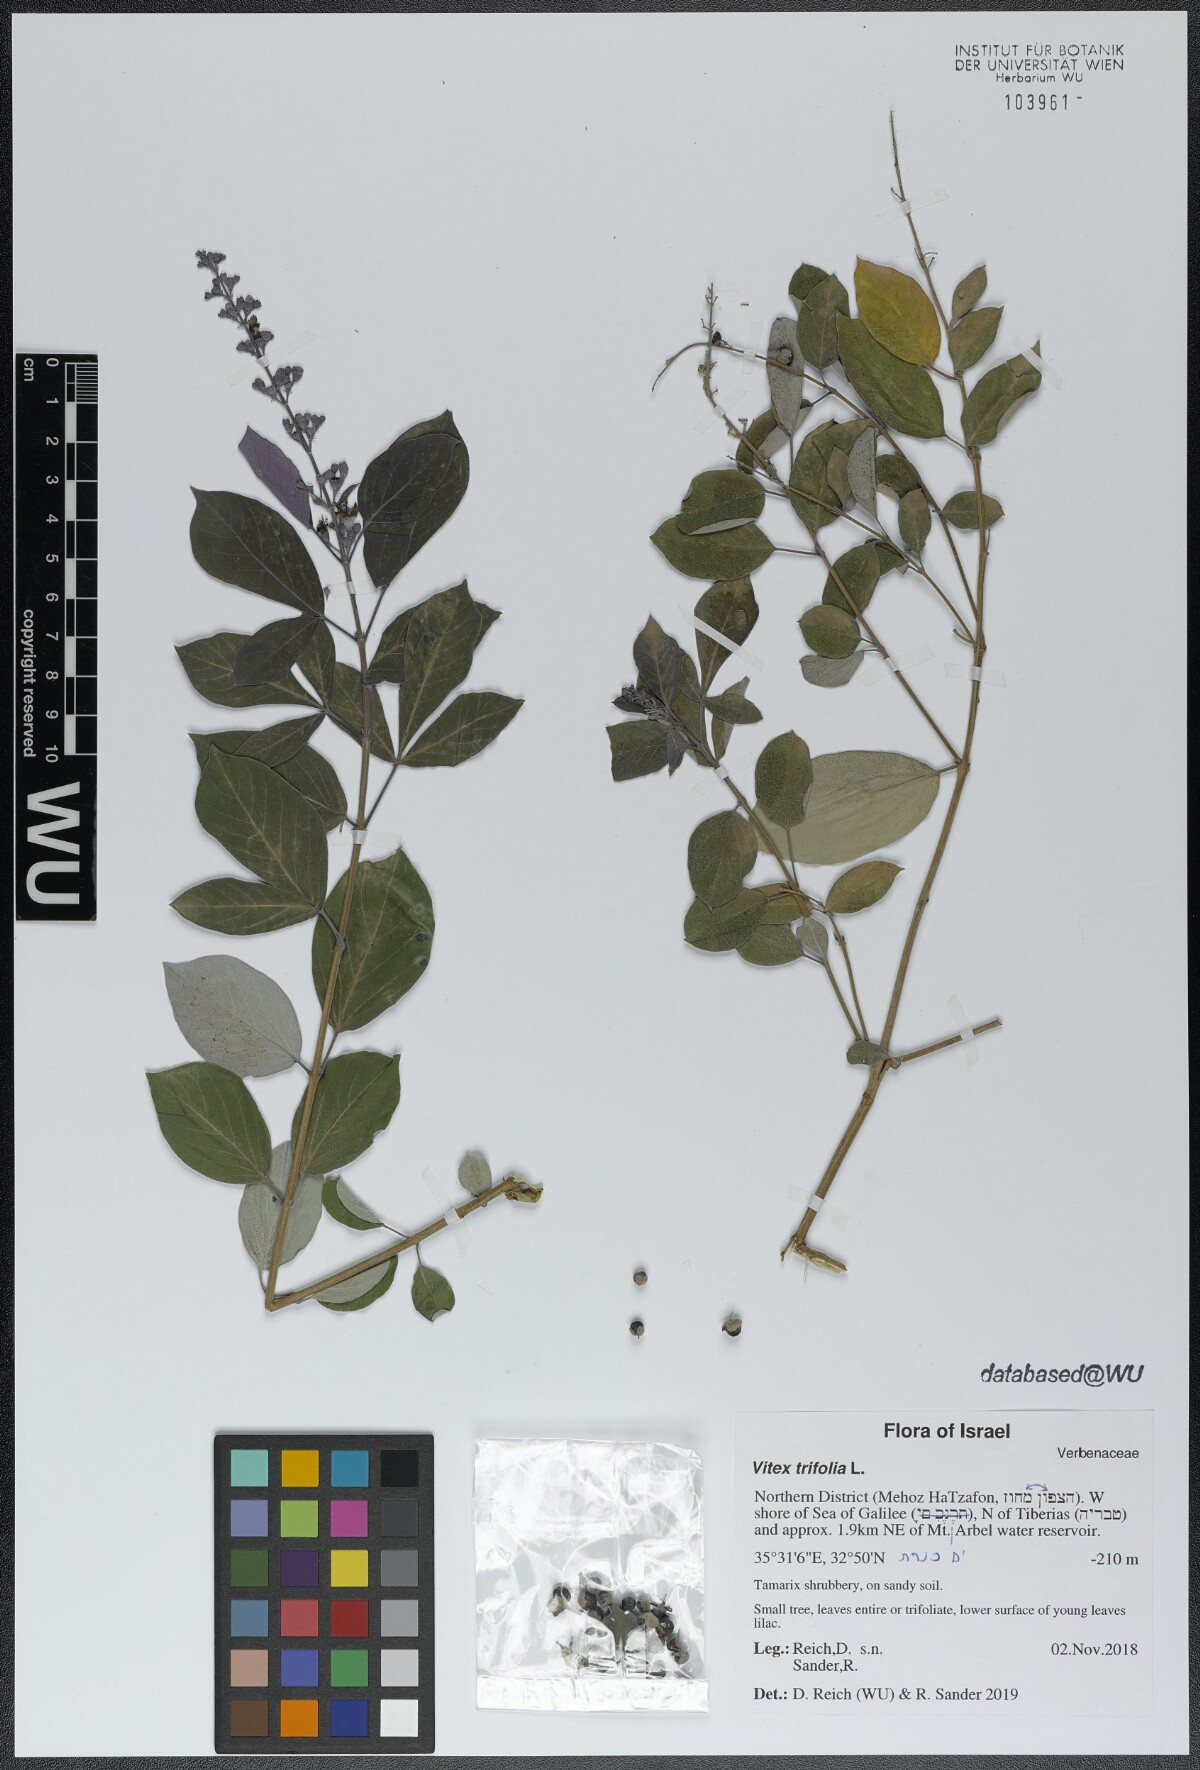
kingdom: Plantae
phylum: Tracheophyta
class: Magnoliopsida
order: Lamiales
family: Lamiaceae
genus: Vitex
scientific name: Vitex trifolia
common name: Simpleleaf chastetree
